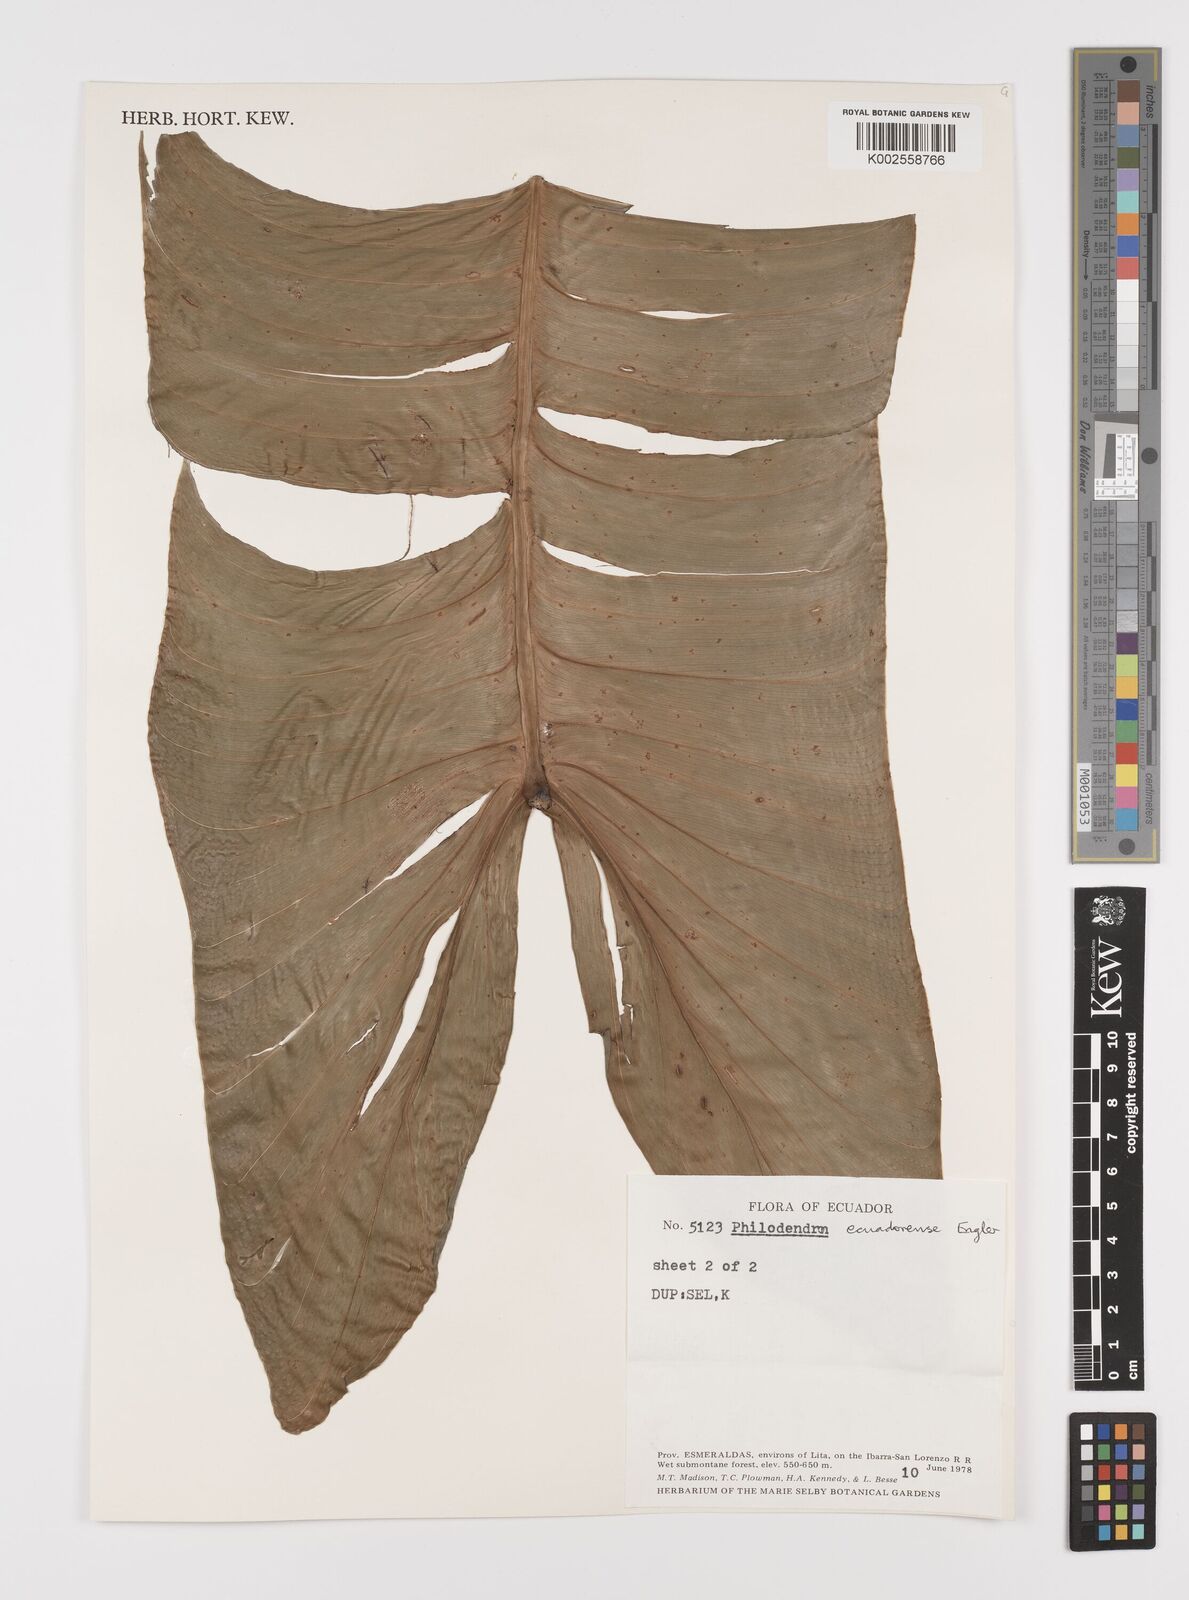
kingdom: Plantae
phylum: Tracheophyta
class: Liliopsida
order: Alismatales
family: Araceae
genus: Philodendron
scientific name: Philodendron tenue
